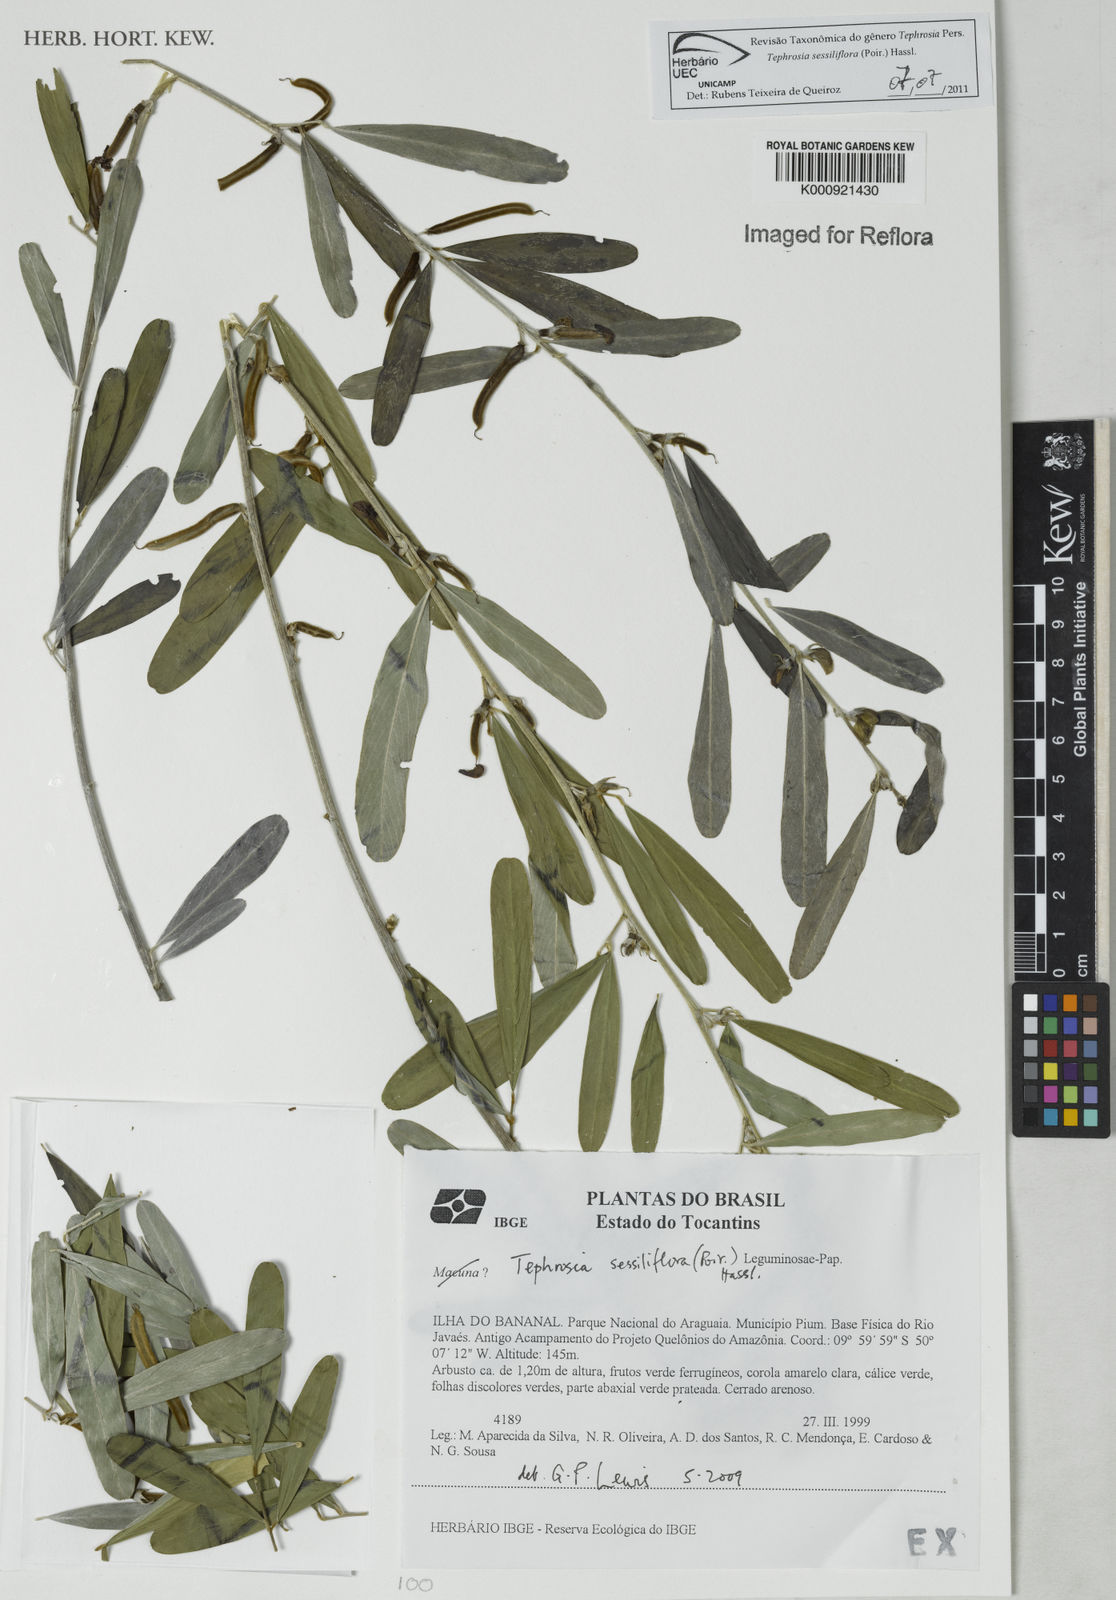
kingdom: Plantae
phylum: Tracheophyta
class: Magnoliopsida
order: Fabales
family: Fabaceae
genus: Tephrosia
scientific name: Tephrosia sessiliflora
